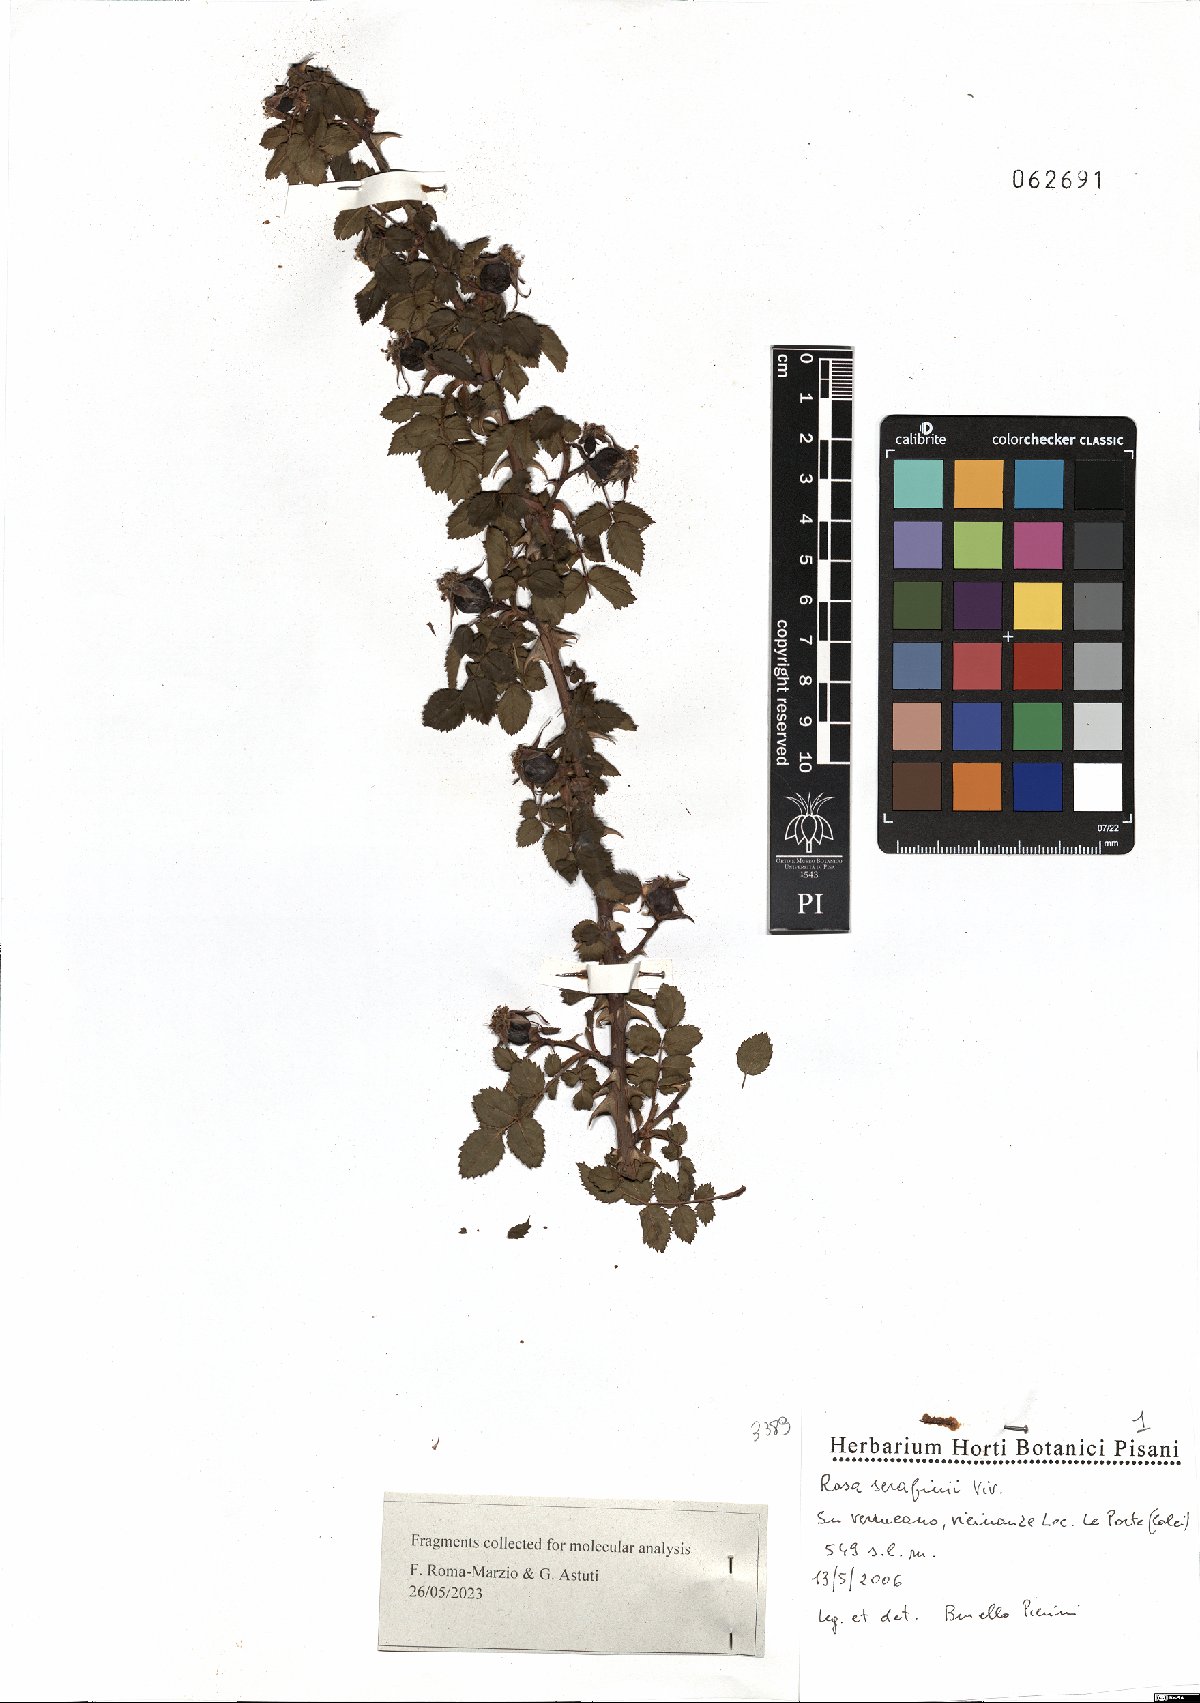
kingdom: Plantae
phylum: Tracheophyta
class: Magnoliopsida
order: Rosales
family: Rosaceae
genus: Rosa
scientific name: Rosa serafinii
